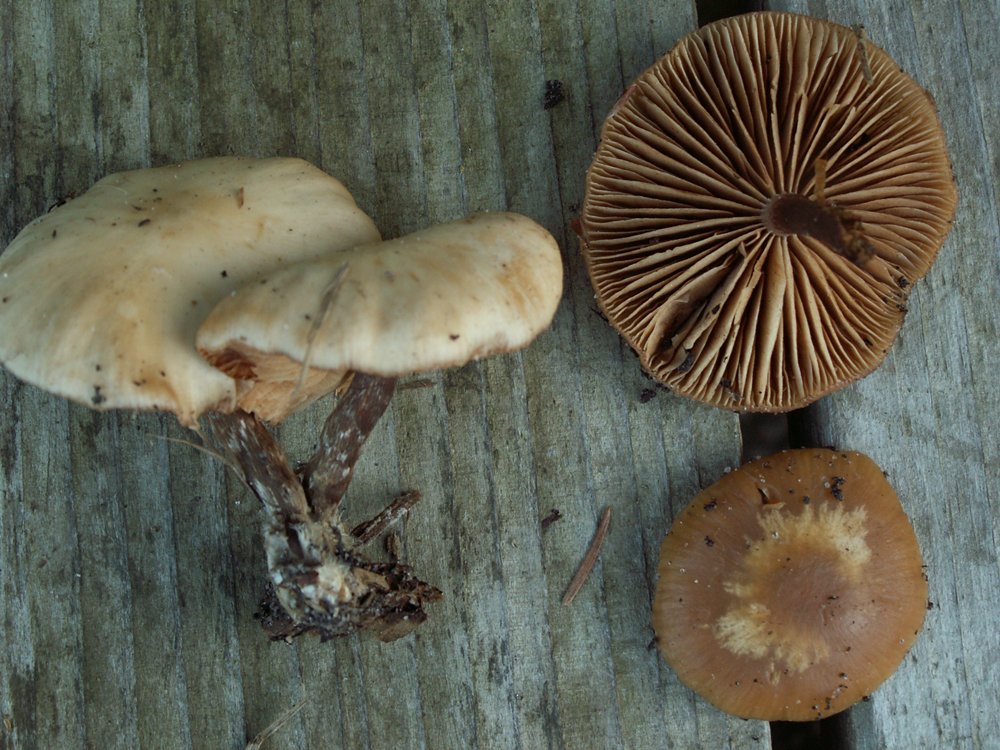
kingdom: Fungi
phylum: Basidiomycota
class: Agaricomycetes
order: Agaricales
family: Hymenogastraceae
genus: Galerina
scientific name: Galerina sideroides
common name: træflis-hjelmhat
